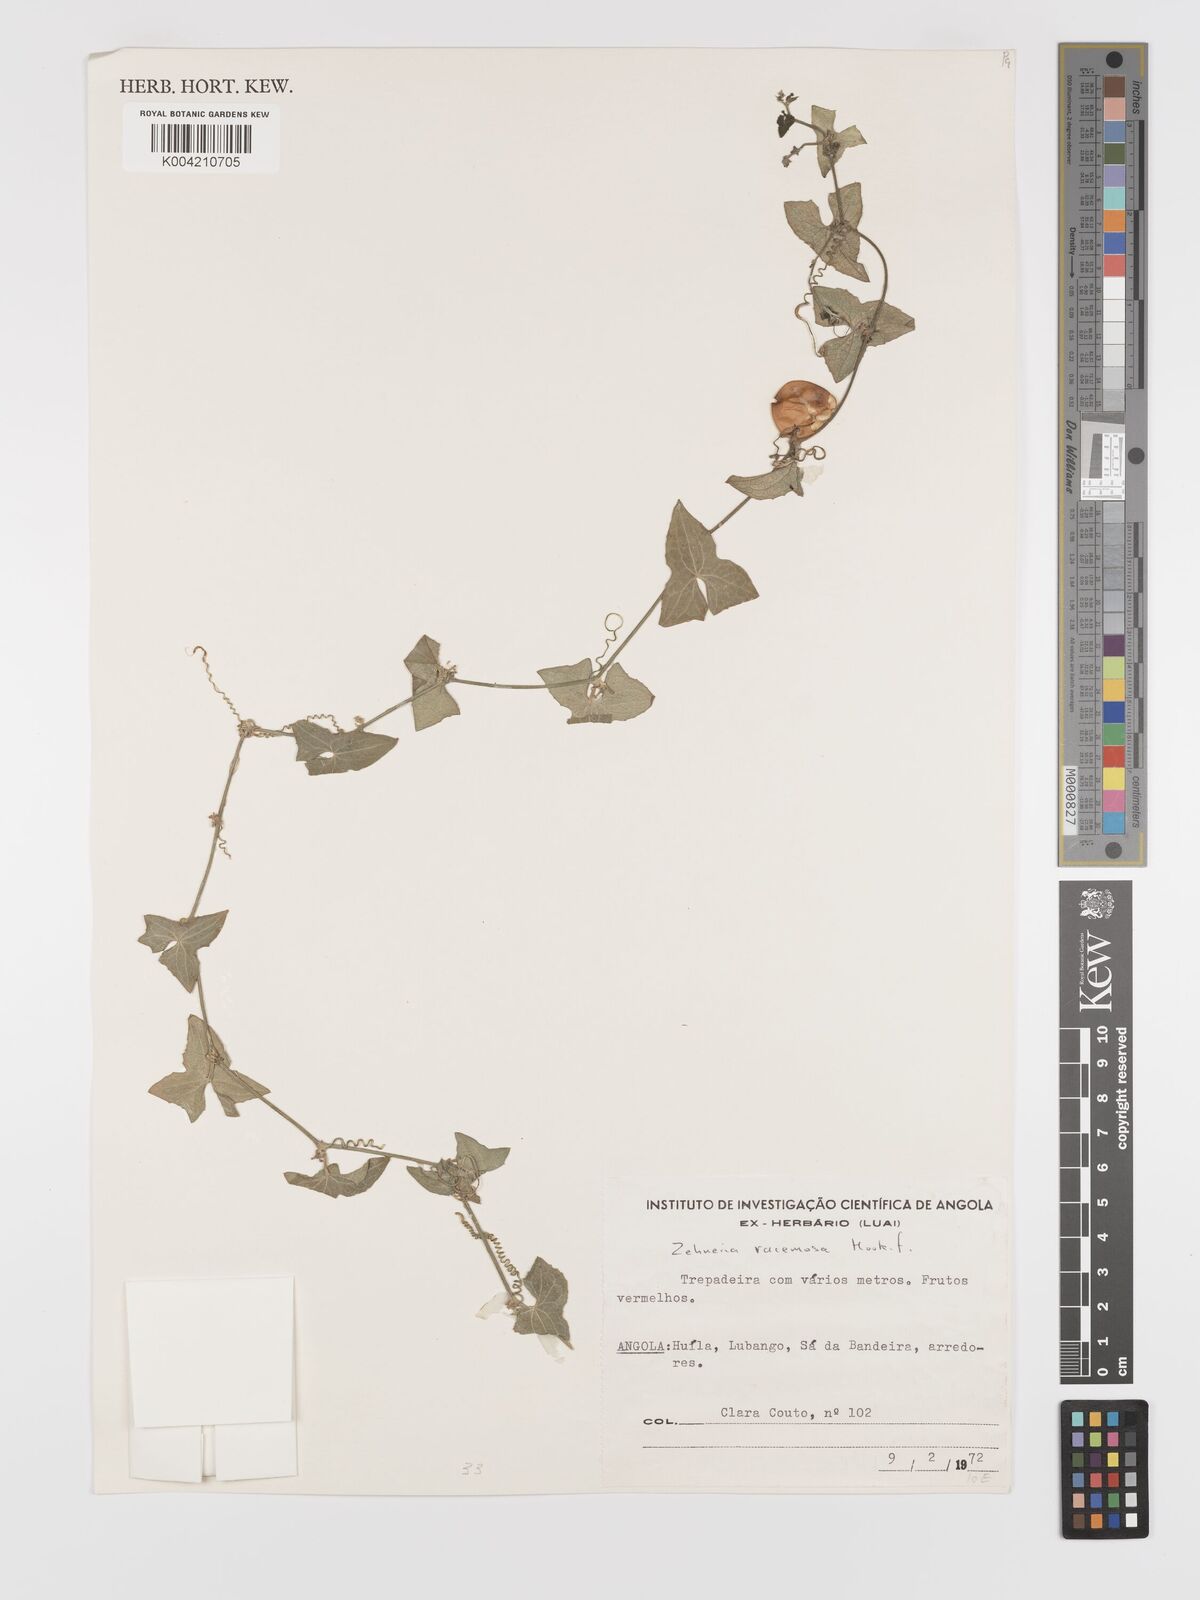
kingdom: Plantae
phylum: Tracheophyta
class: Magnoliopsida
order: Cucurbitales
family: Cucurbitaceae
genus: Zehneria
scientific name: Zehneria racemosa
